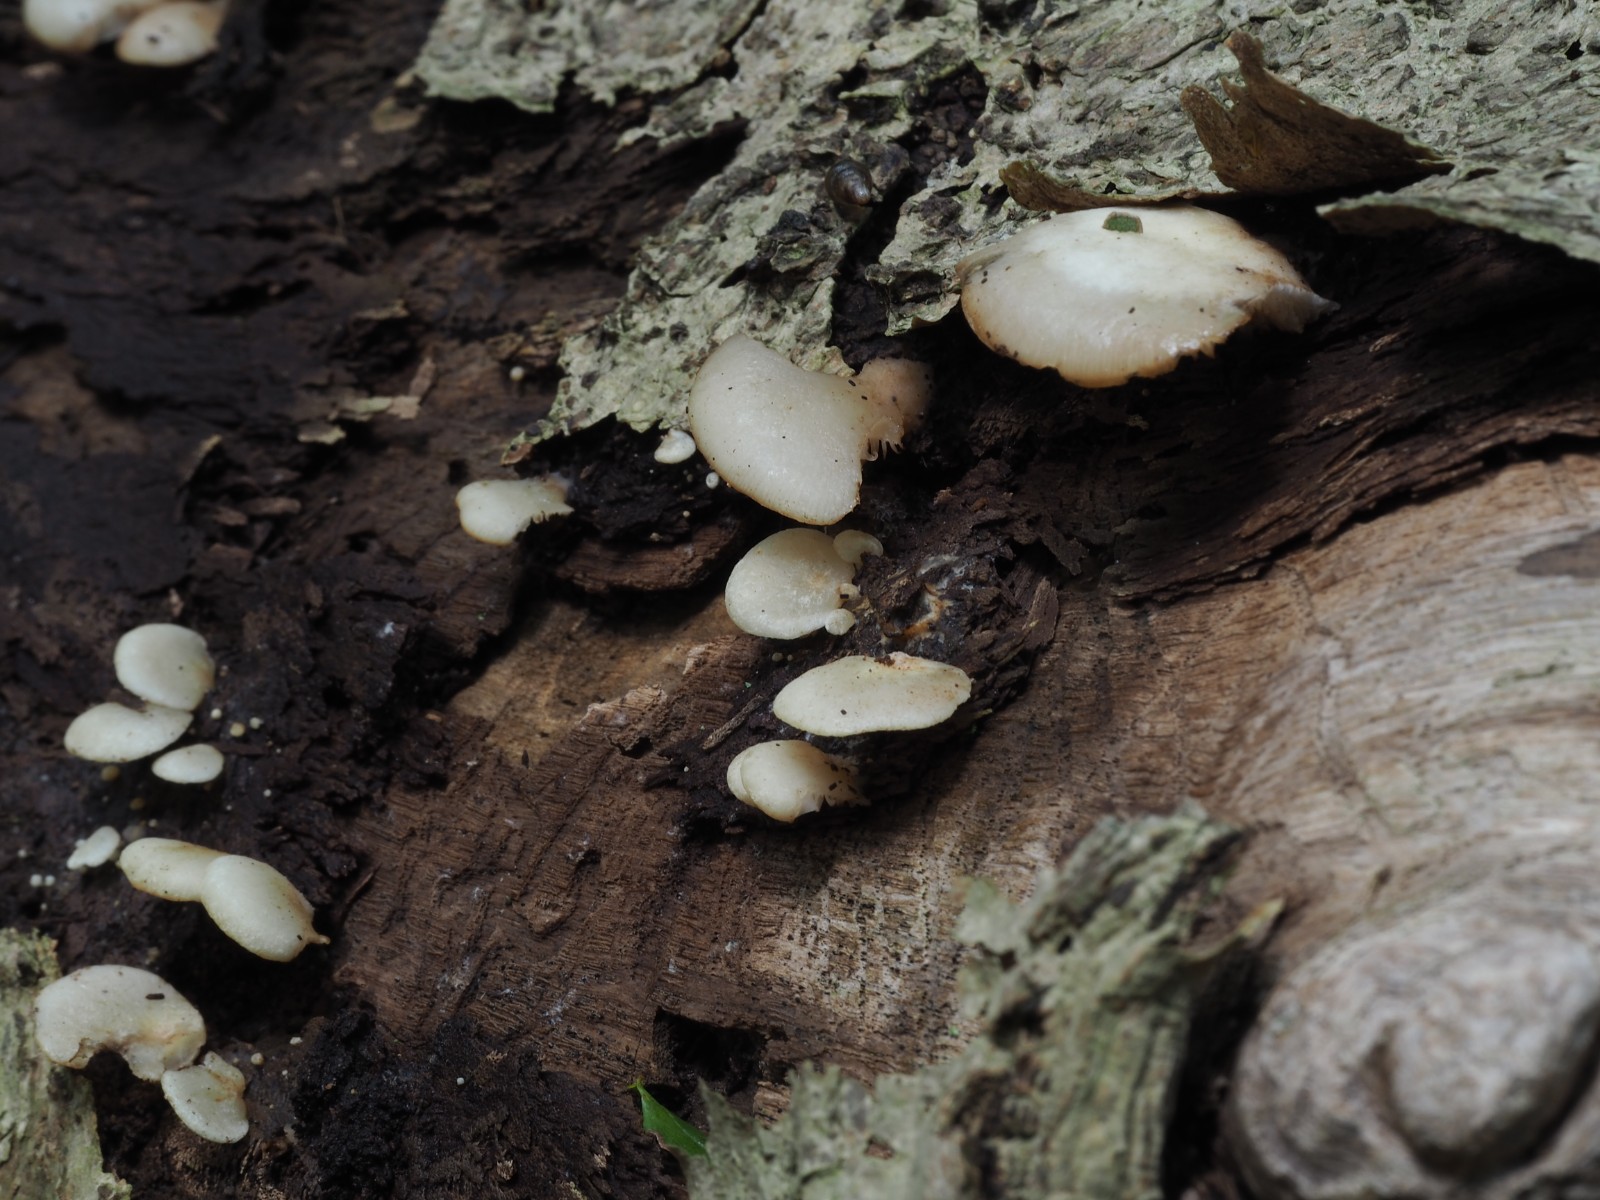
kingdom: Fungi
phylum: Basidiomycota
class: Agaricomycetes
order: Agaricales
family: Crepidotaceae
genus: Crepidotus
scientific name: Crepidotus mollis
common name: blød muslingesvamp
